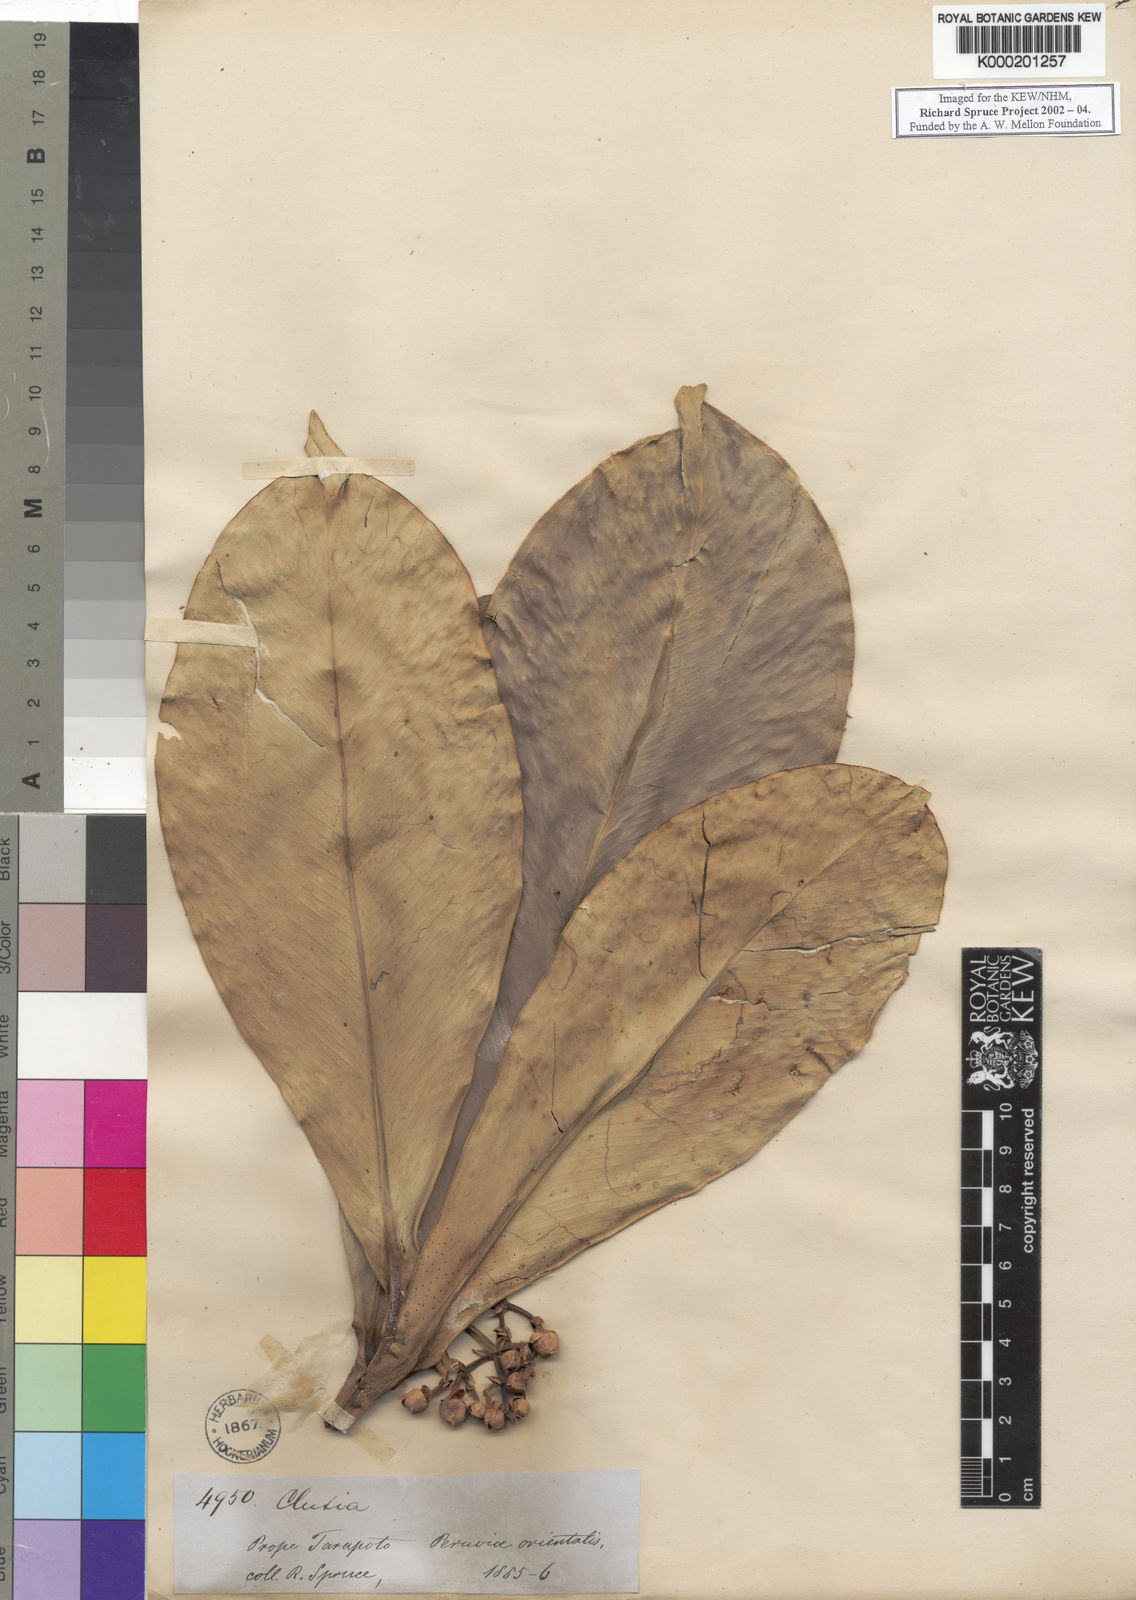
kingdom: Plantae
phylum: Tracheophyta
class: Magnoliopsida
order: Malpighiales
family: Clusiaceae
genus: Clusia
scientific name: Clusia pallida
